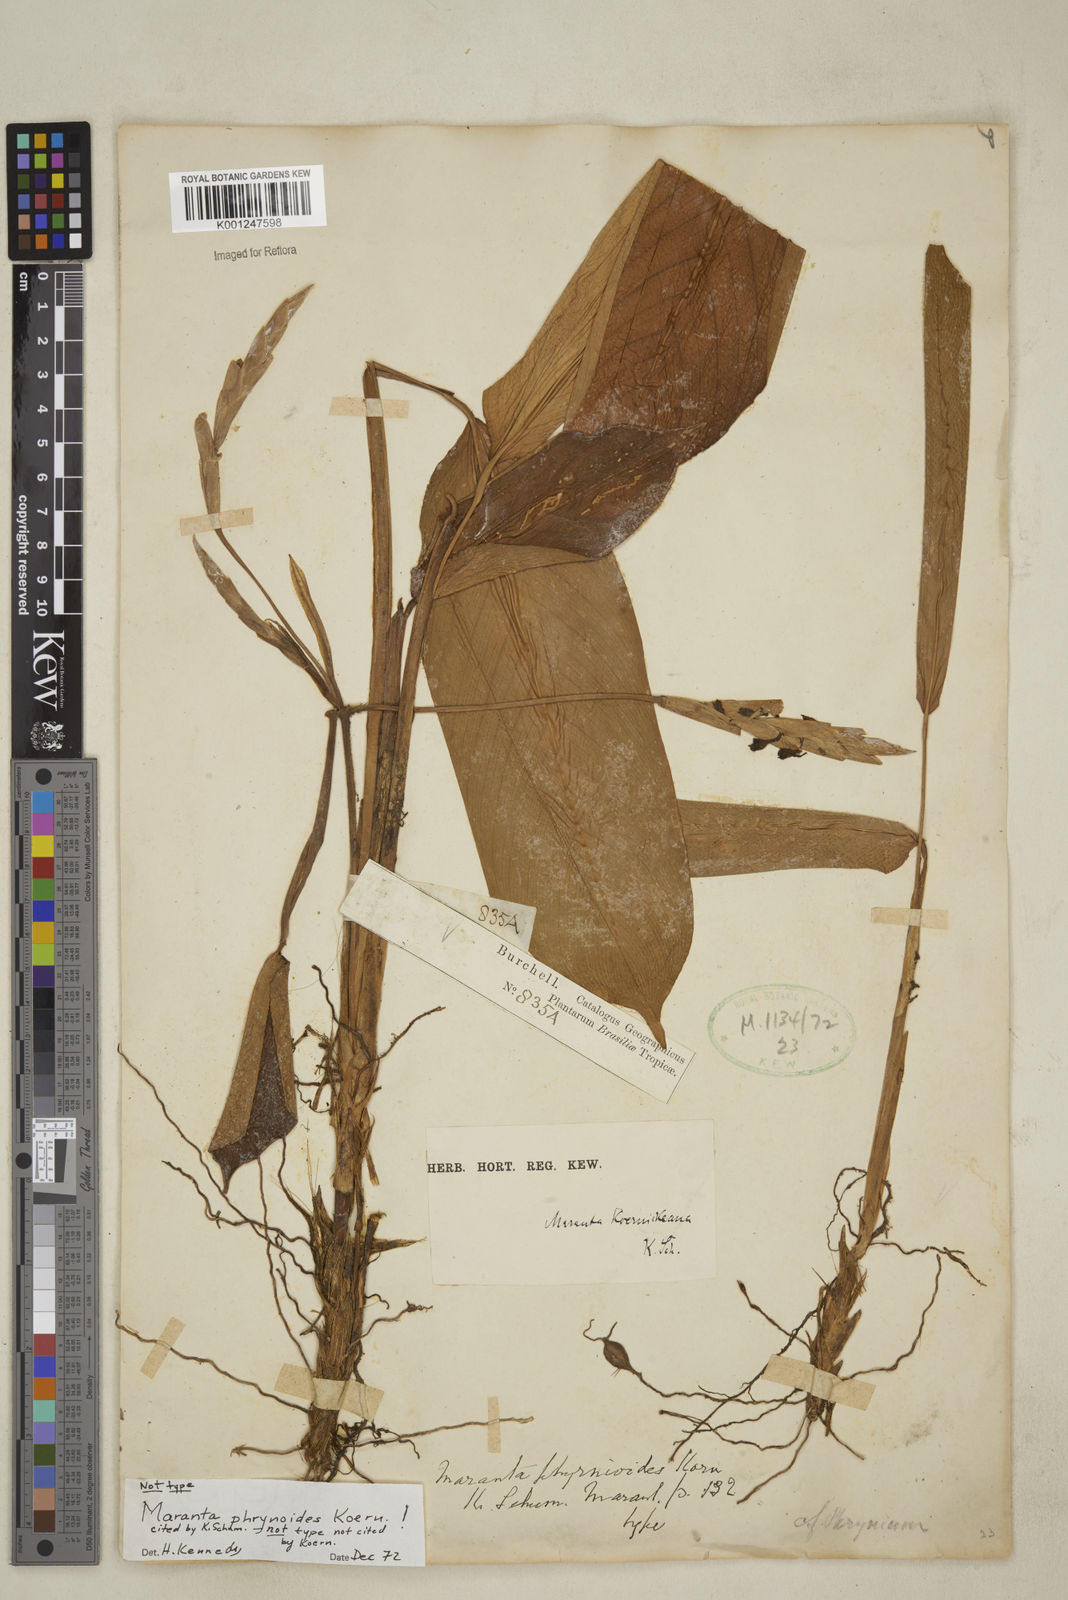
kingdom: Plantae
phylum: Tracheophyta
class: Liliopsida
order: Zingiberales
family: Marantaceae
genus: Maranta
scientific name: Maranta phrynioides
